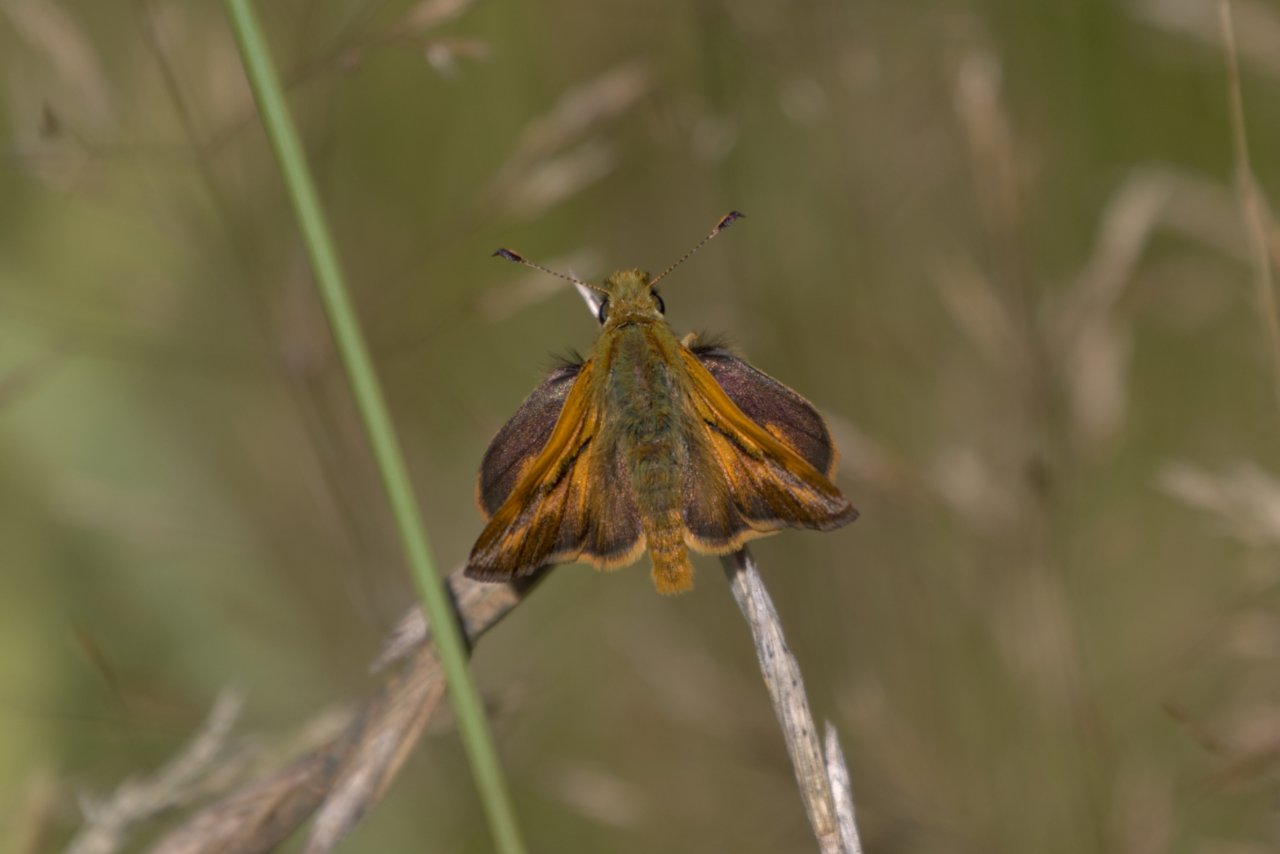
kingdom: Animalia
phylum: Arthropoda
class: Insecta
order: Lepidoptera
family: Hesperiidae
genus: Ochlodes
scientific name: Ochlodes sylvanoides
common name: Woodland Skipper
